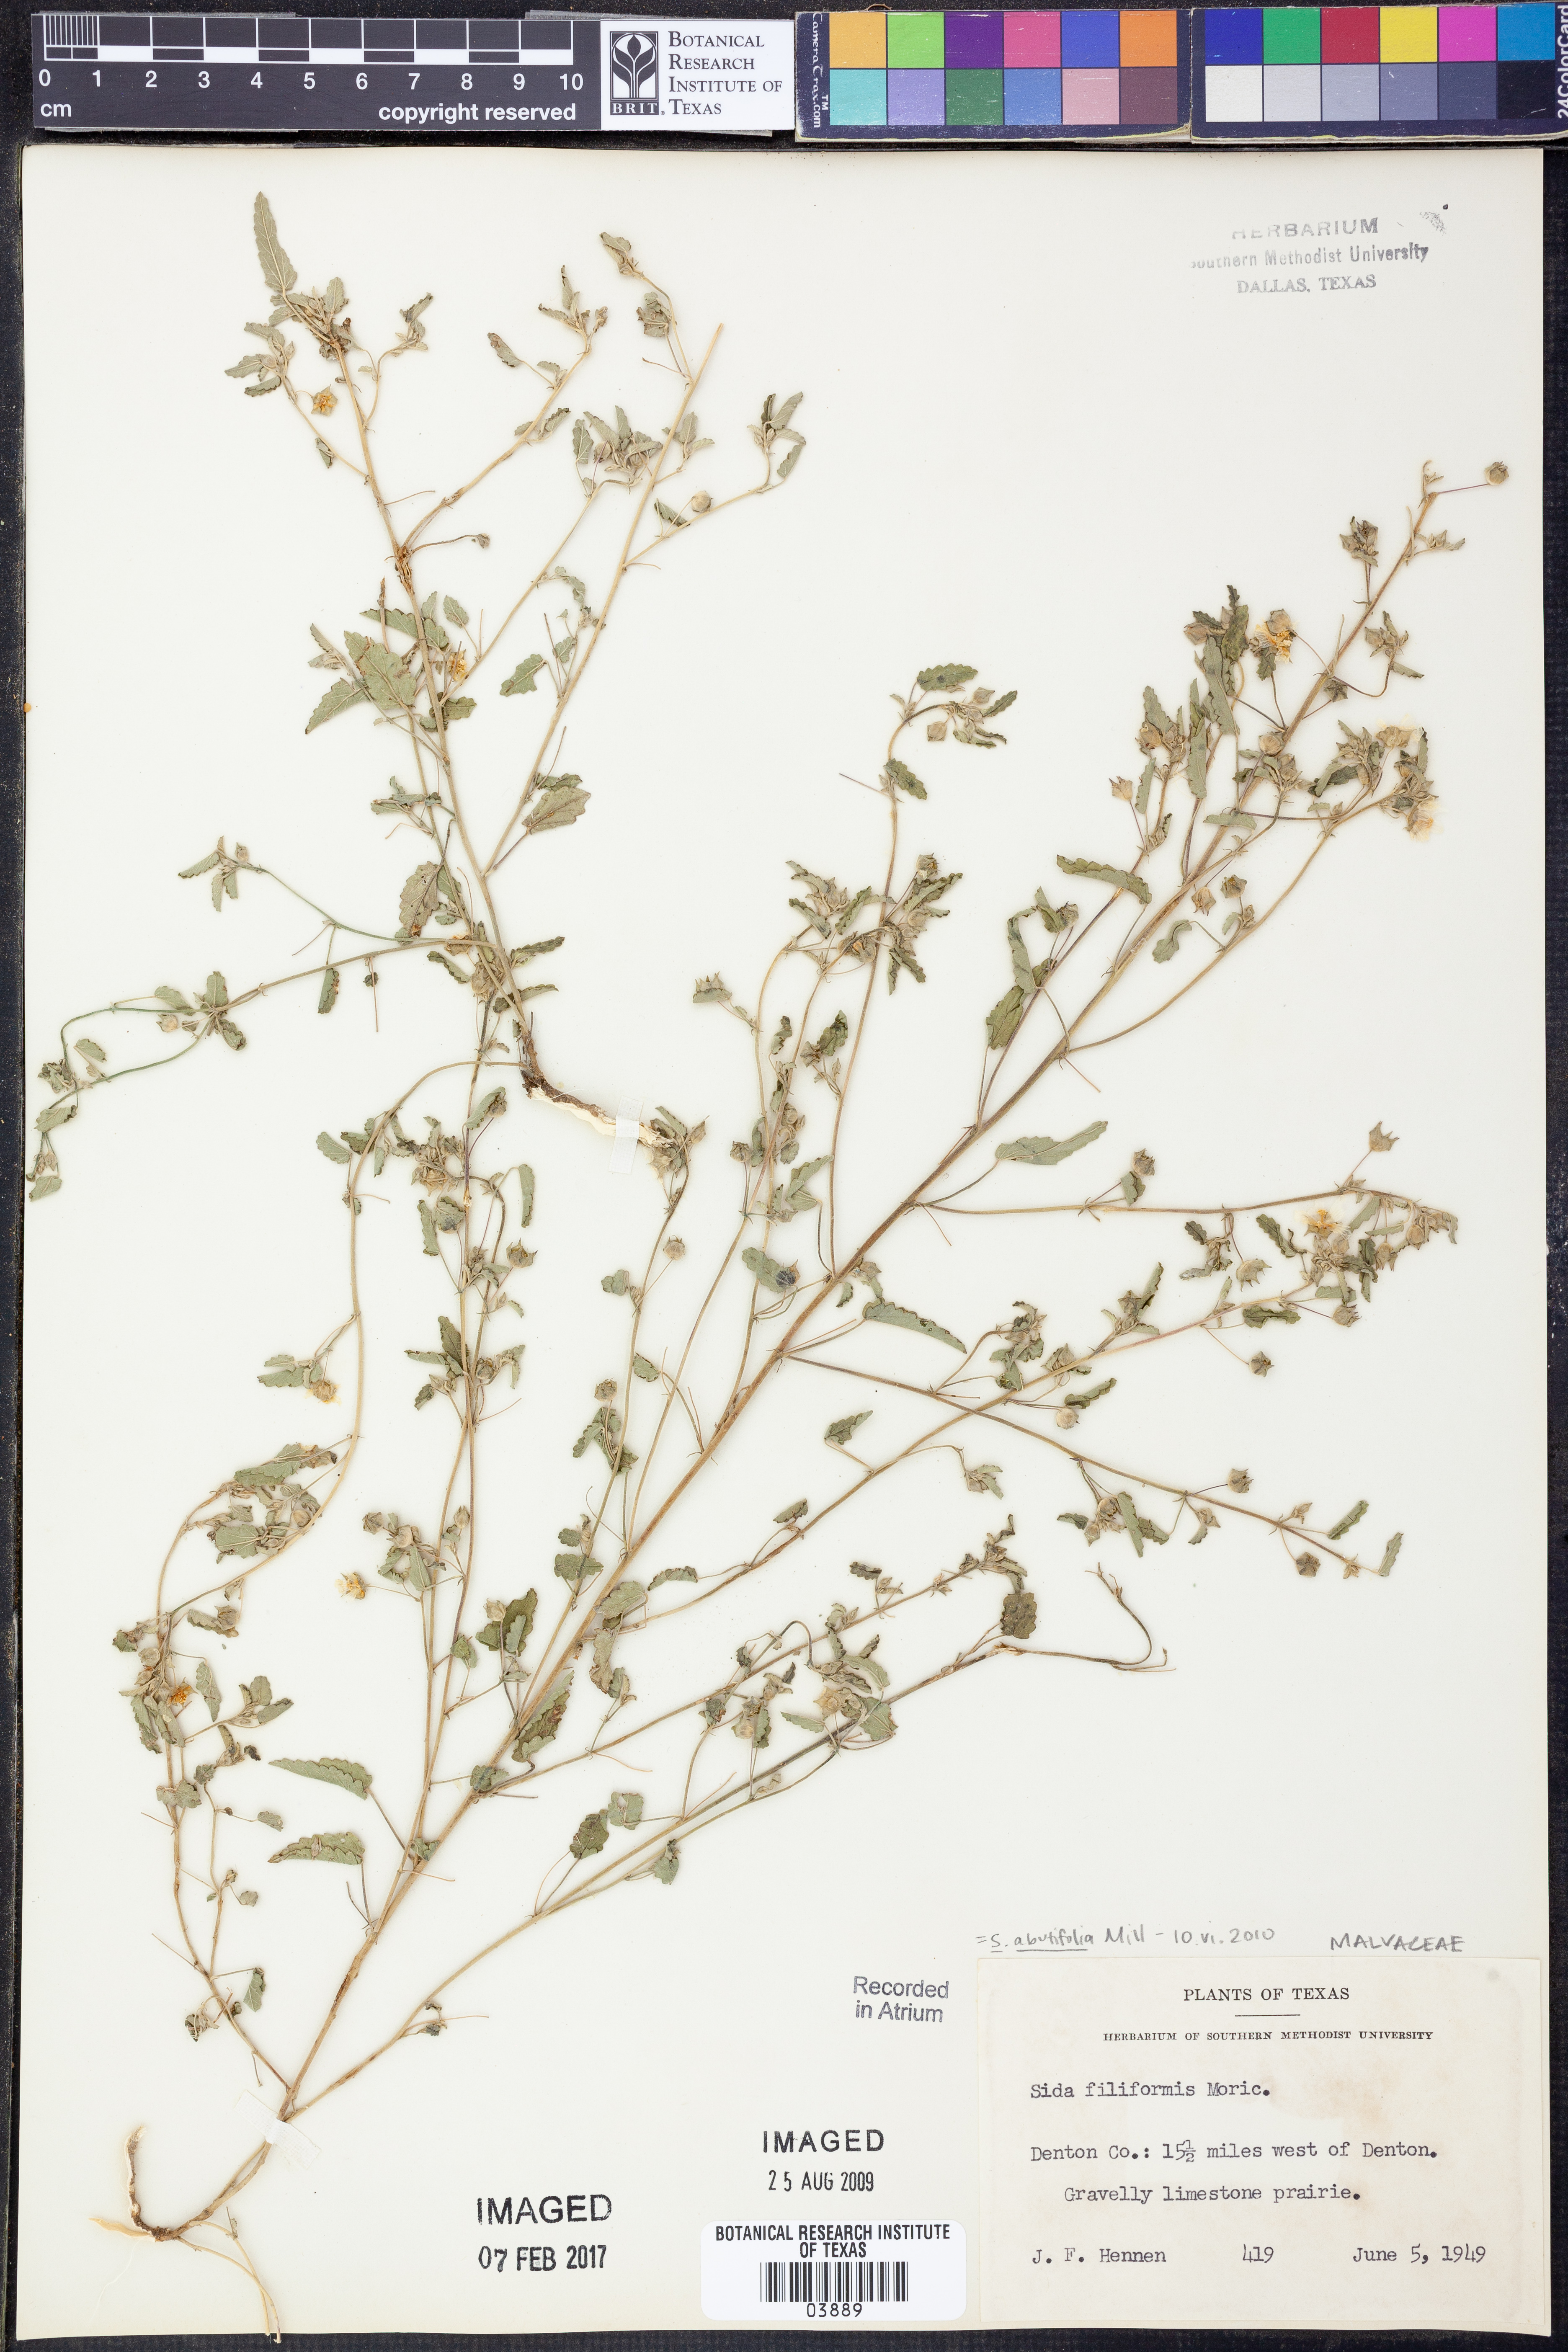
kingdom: Plantae
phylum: Tracheophyta
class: Magnoliopsida
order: Malvales
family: Malvaceae
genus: Sida
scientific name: Sida abutifolia
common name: Spreading fantails
